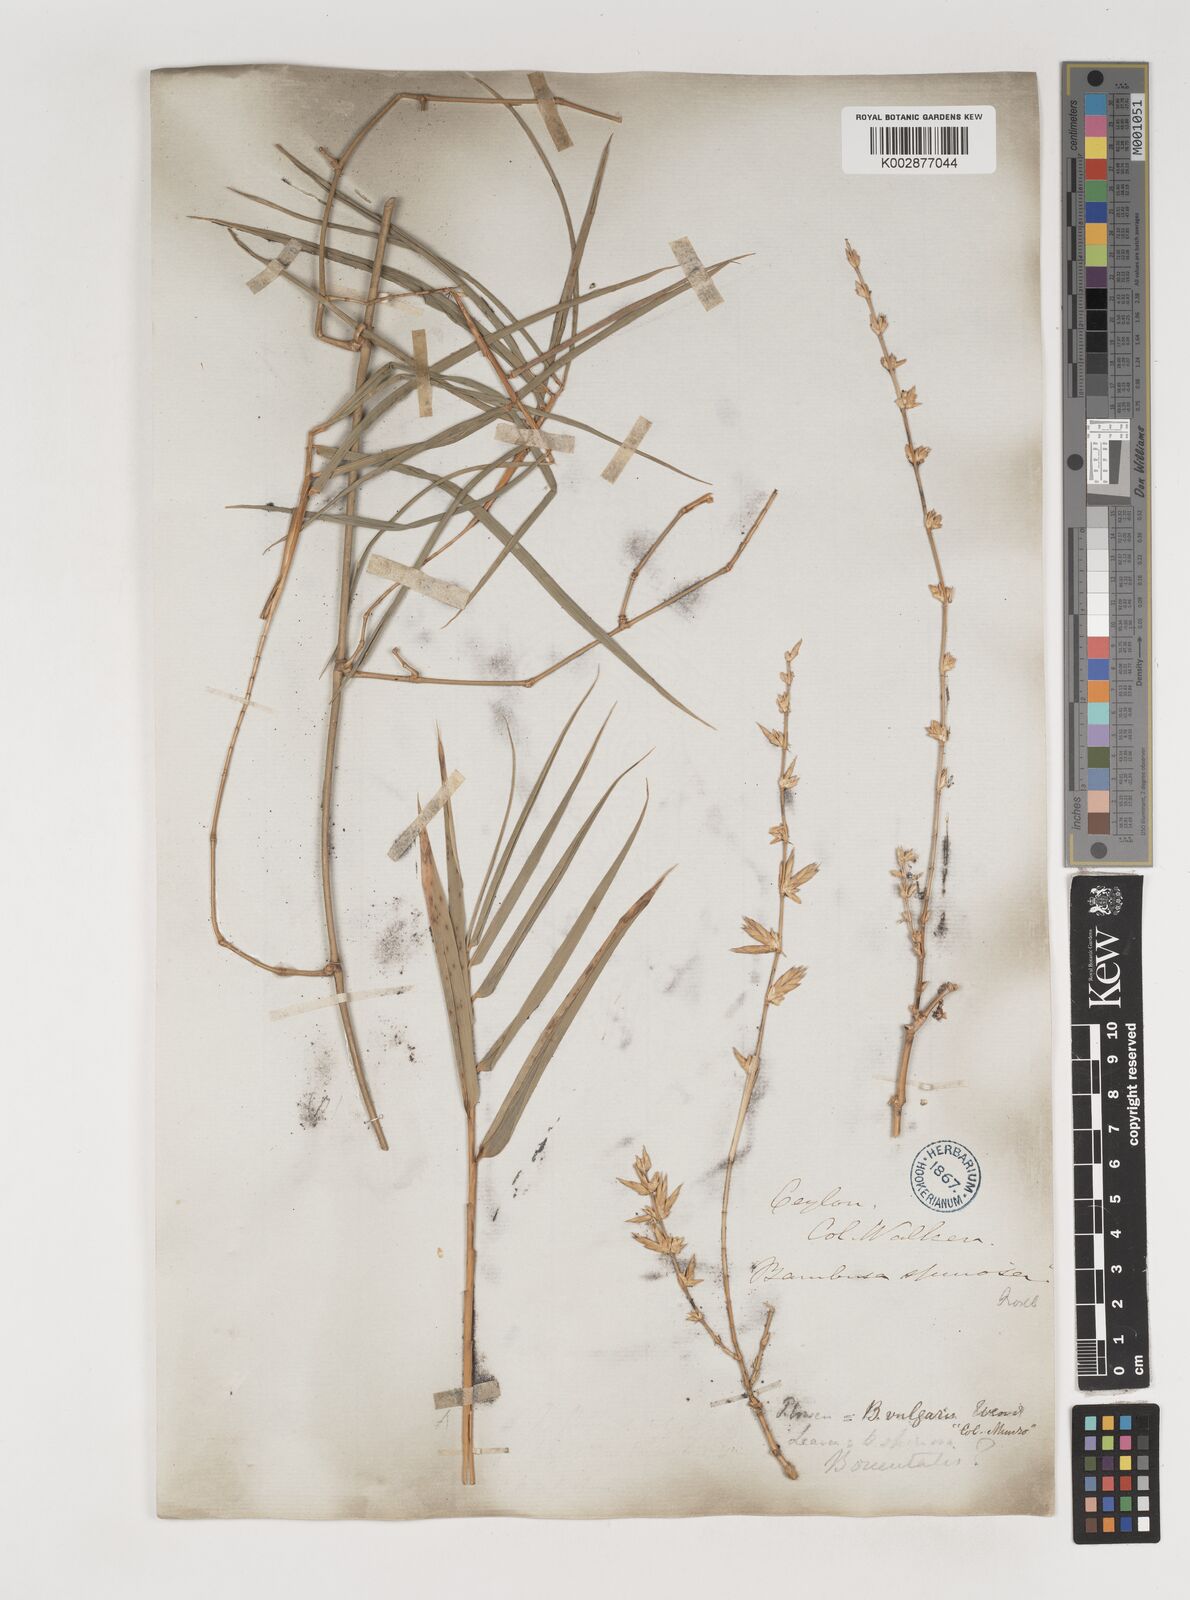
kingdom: Plantae
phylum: Tracheophyta
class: Liliopsida
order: Poales
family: Poaceae
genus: Bambusa
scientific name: Bambusa vulgaris
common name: Common bamboo
